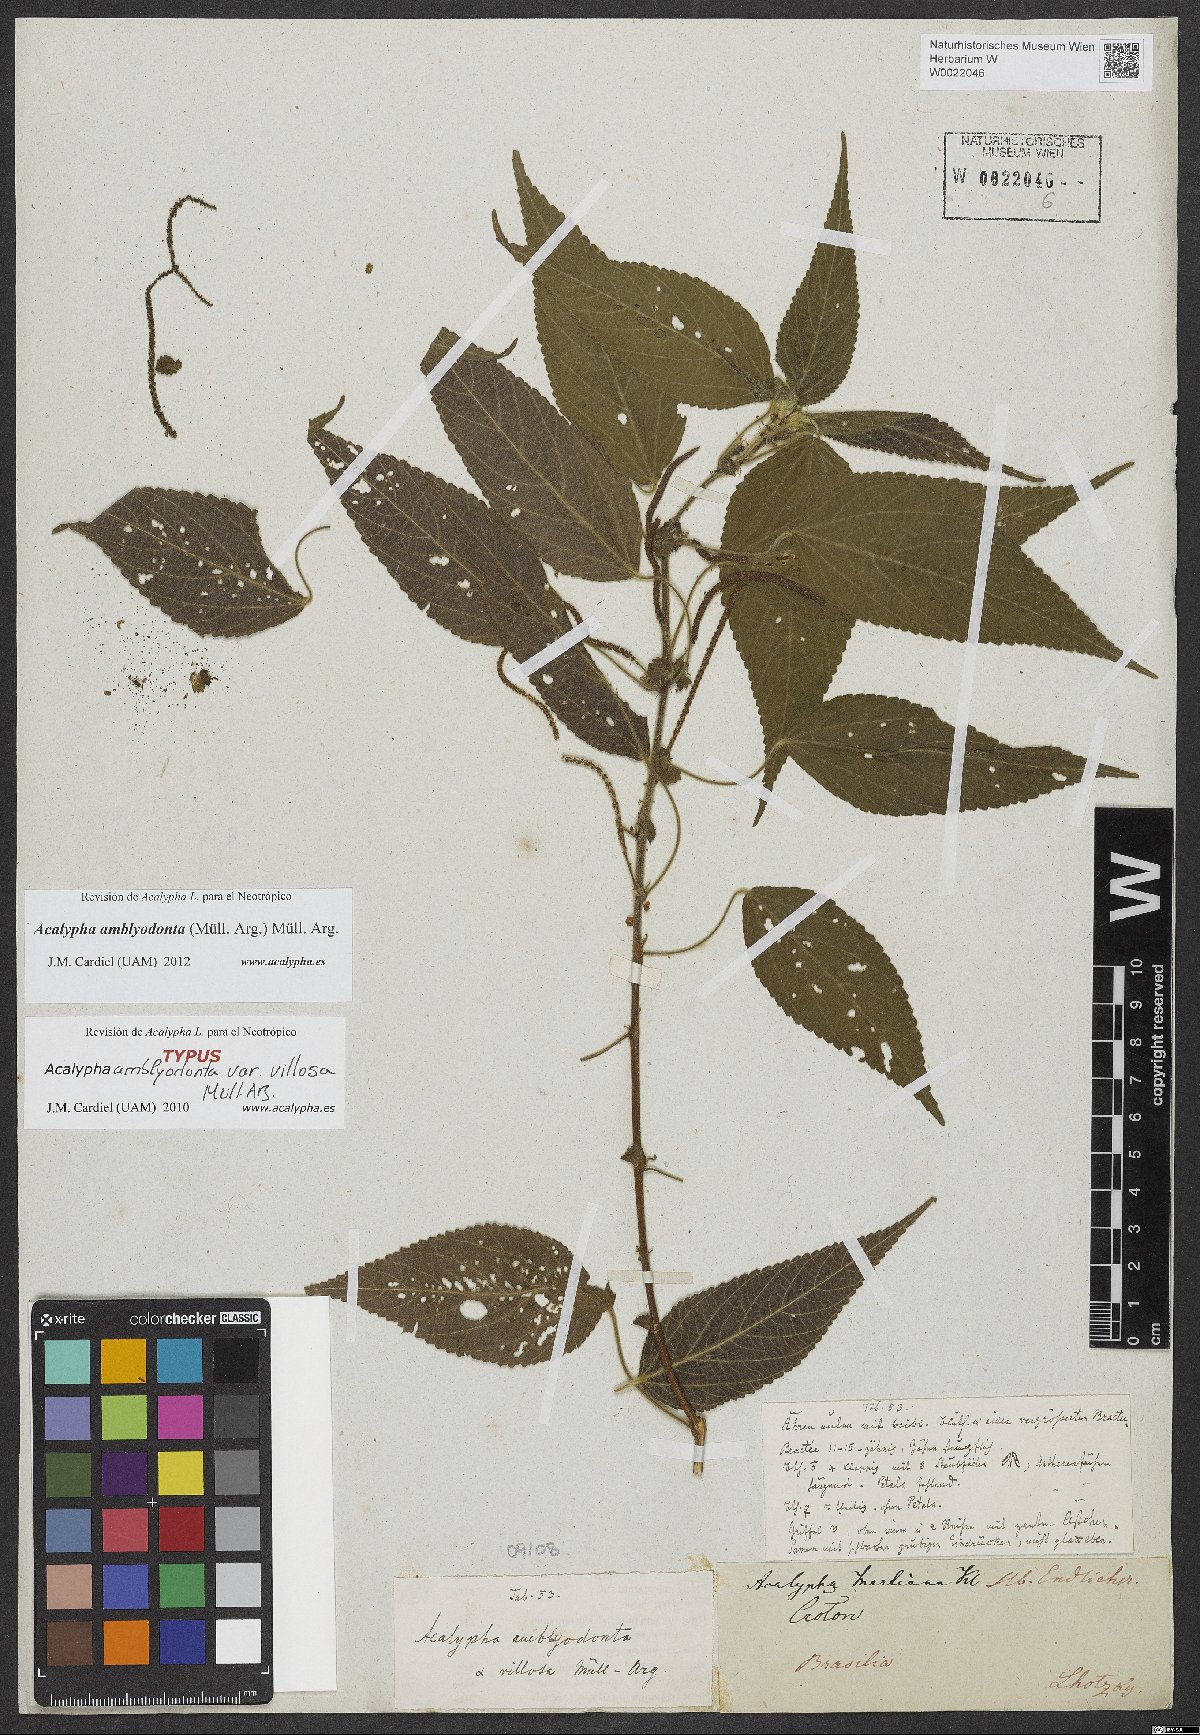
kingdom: Plantae
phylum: Tracheophyta
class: Magnoliopsida
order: Malpighiales
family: Euphorbiaceae
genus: Acalypha
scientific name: Acalypha amblyodonta
